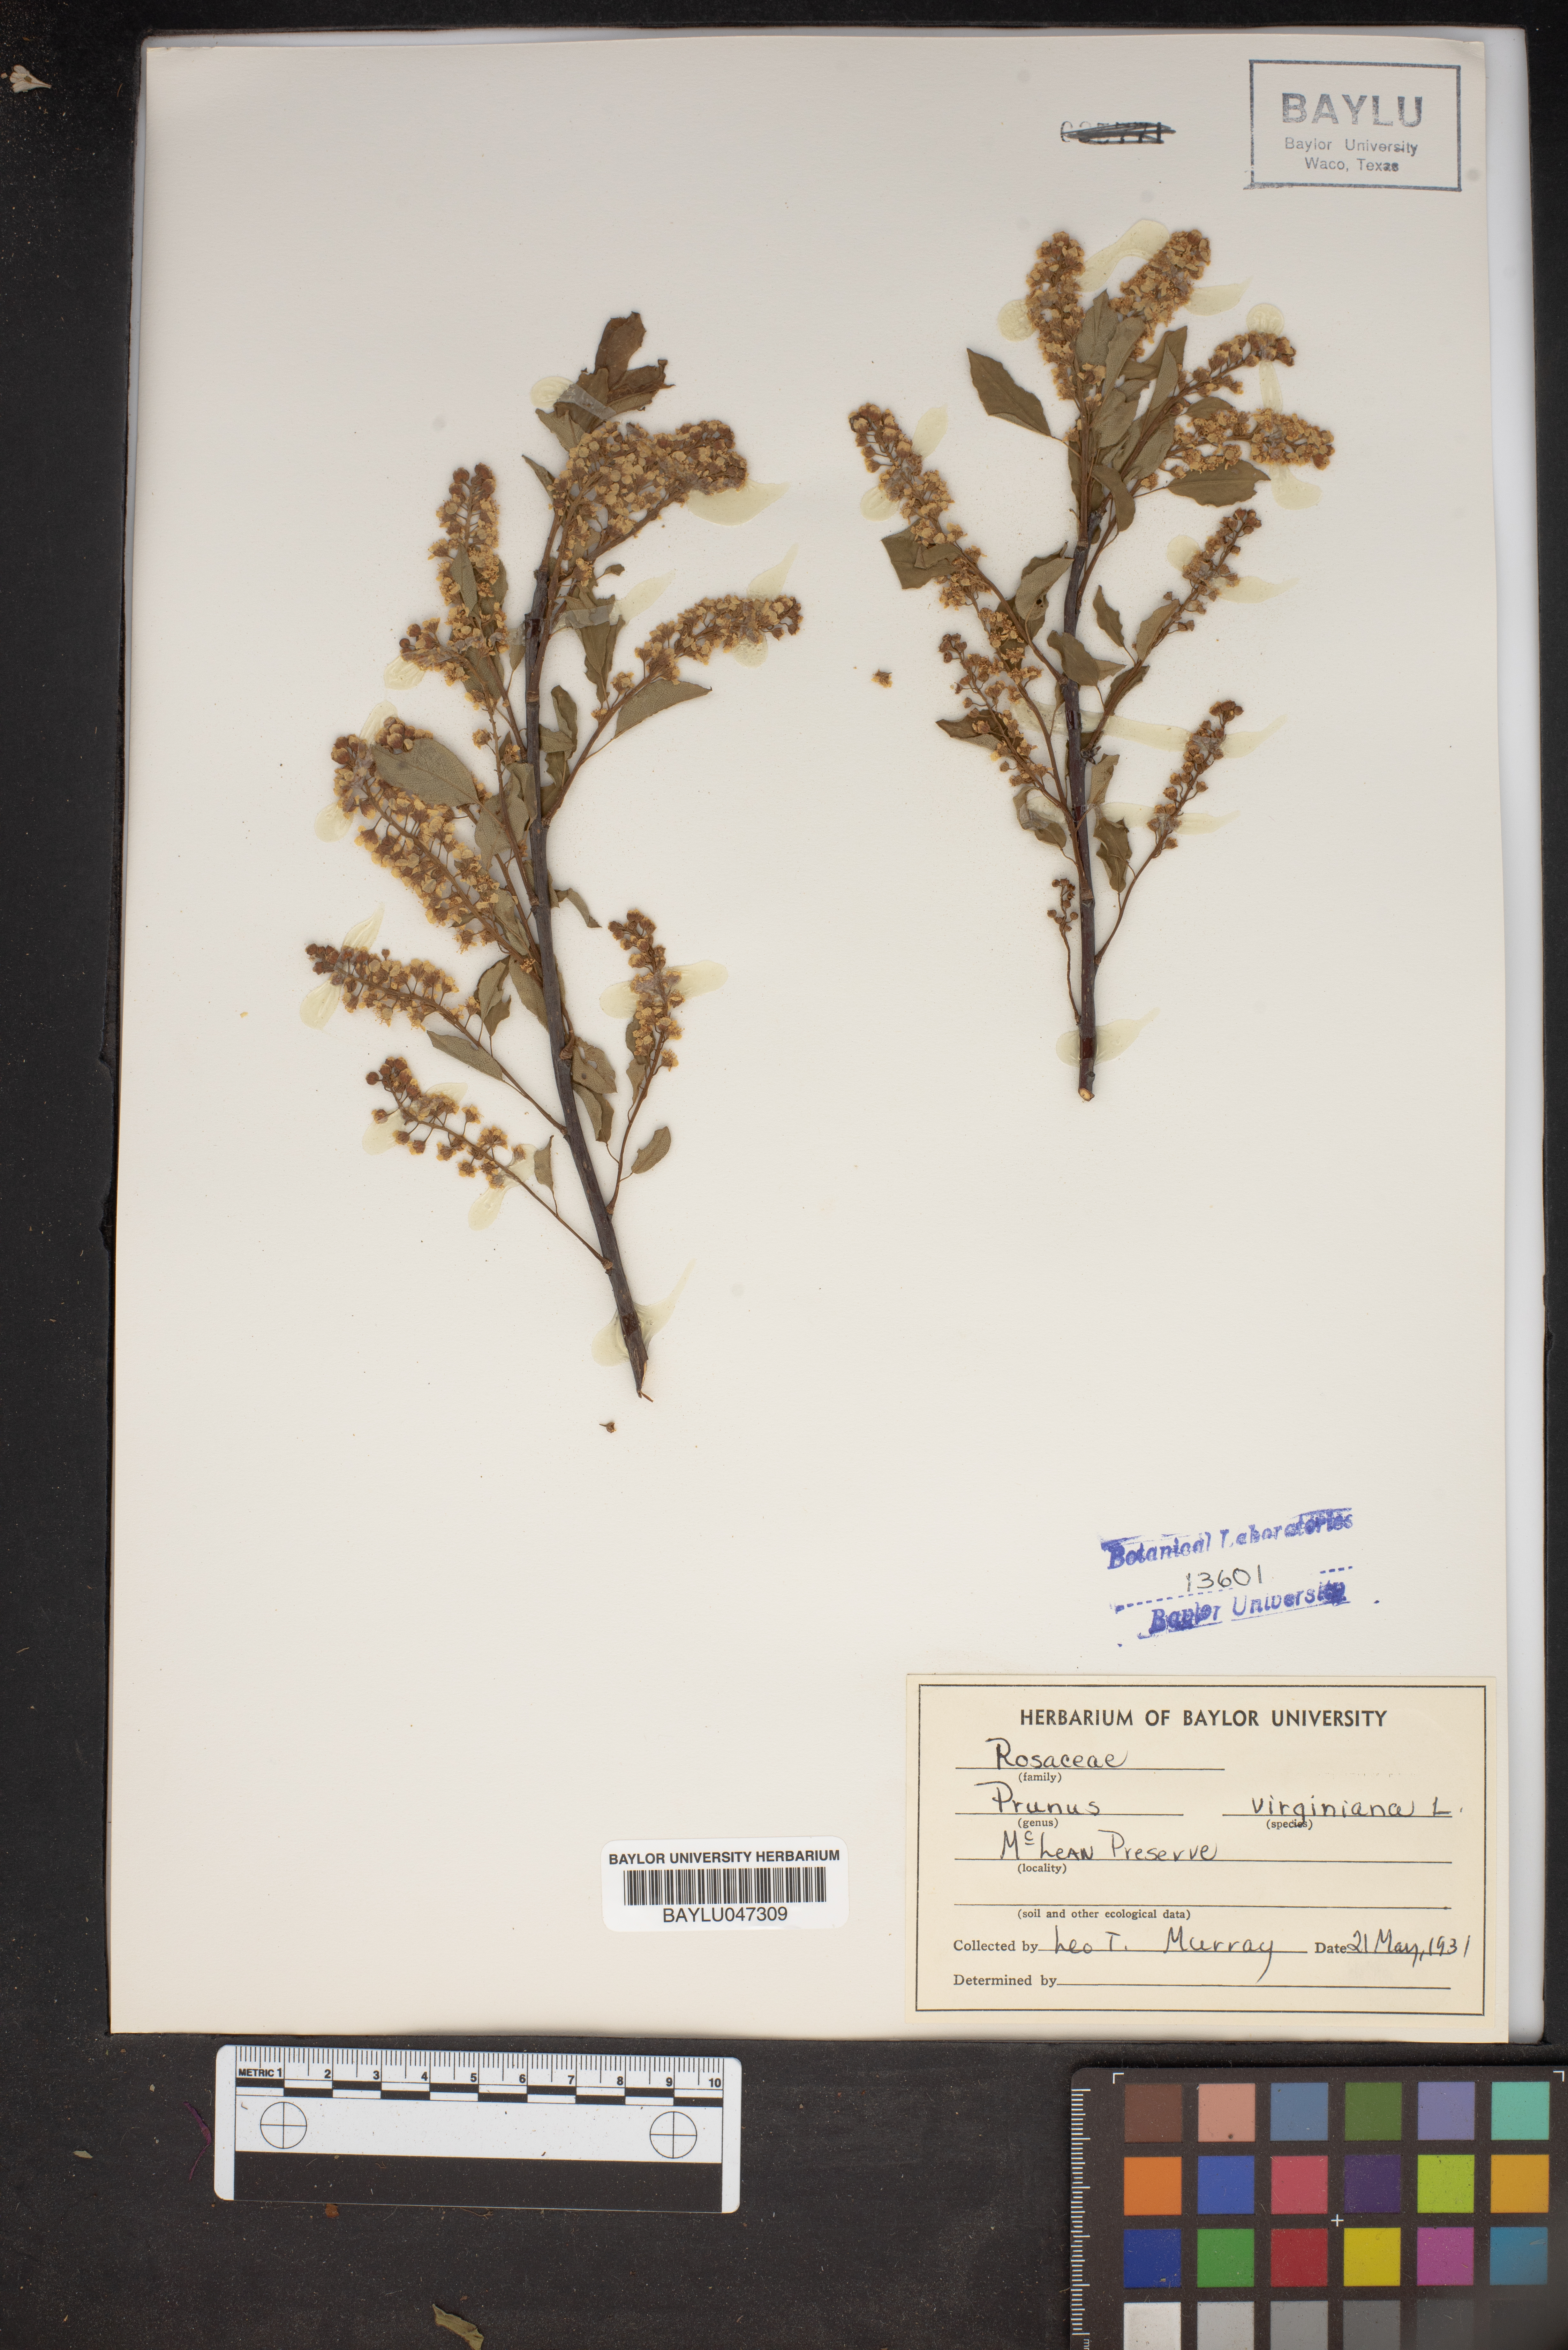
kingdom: Plantae
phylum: Tracheophyta
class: Magnoliopsida
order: Rosales
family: Rosaceae
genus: Prunus
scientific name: Prunus virginiana
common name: Chokecherry
